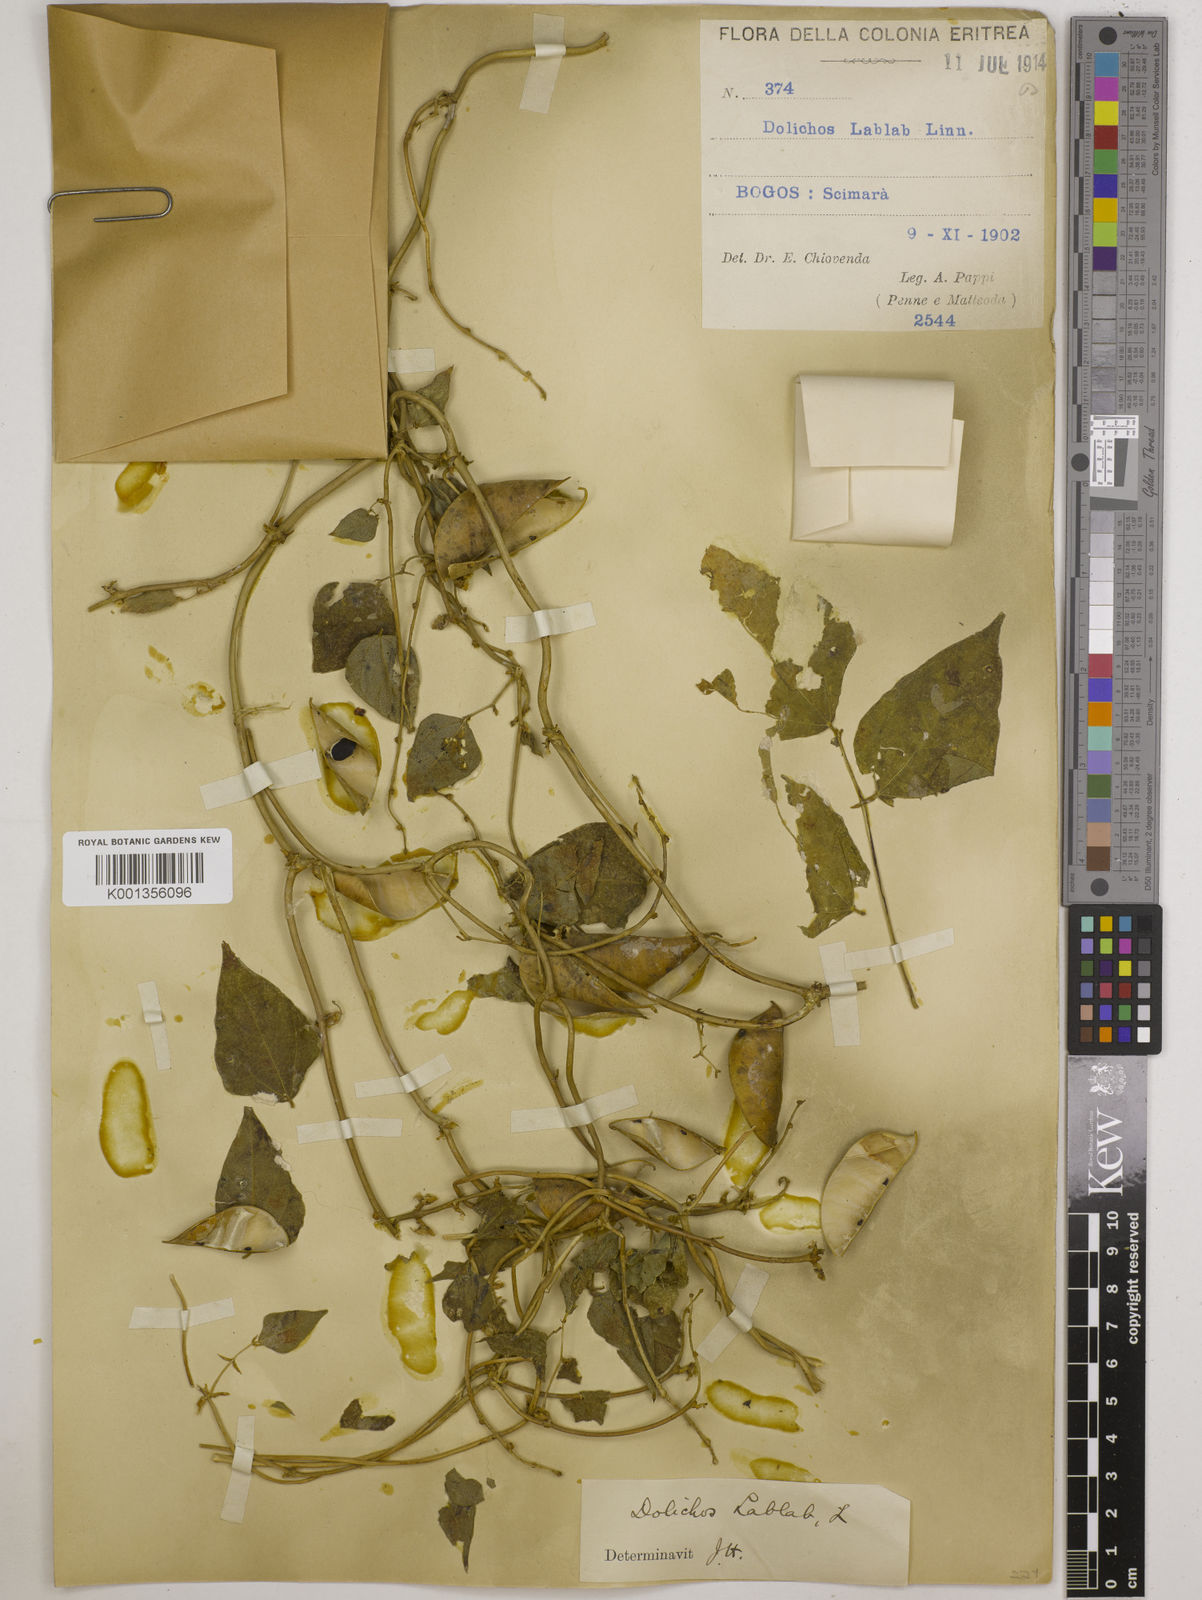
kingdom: Plantae
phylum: Tracheophyta
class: Magnoliopsida
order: Fabales
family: Fabaceae
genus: Lablab
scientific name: Lablab purpureus
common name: Lablab-bean
